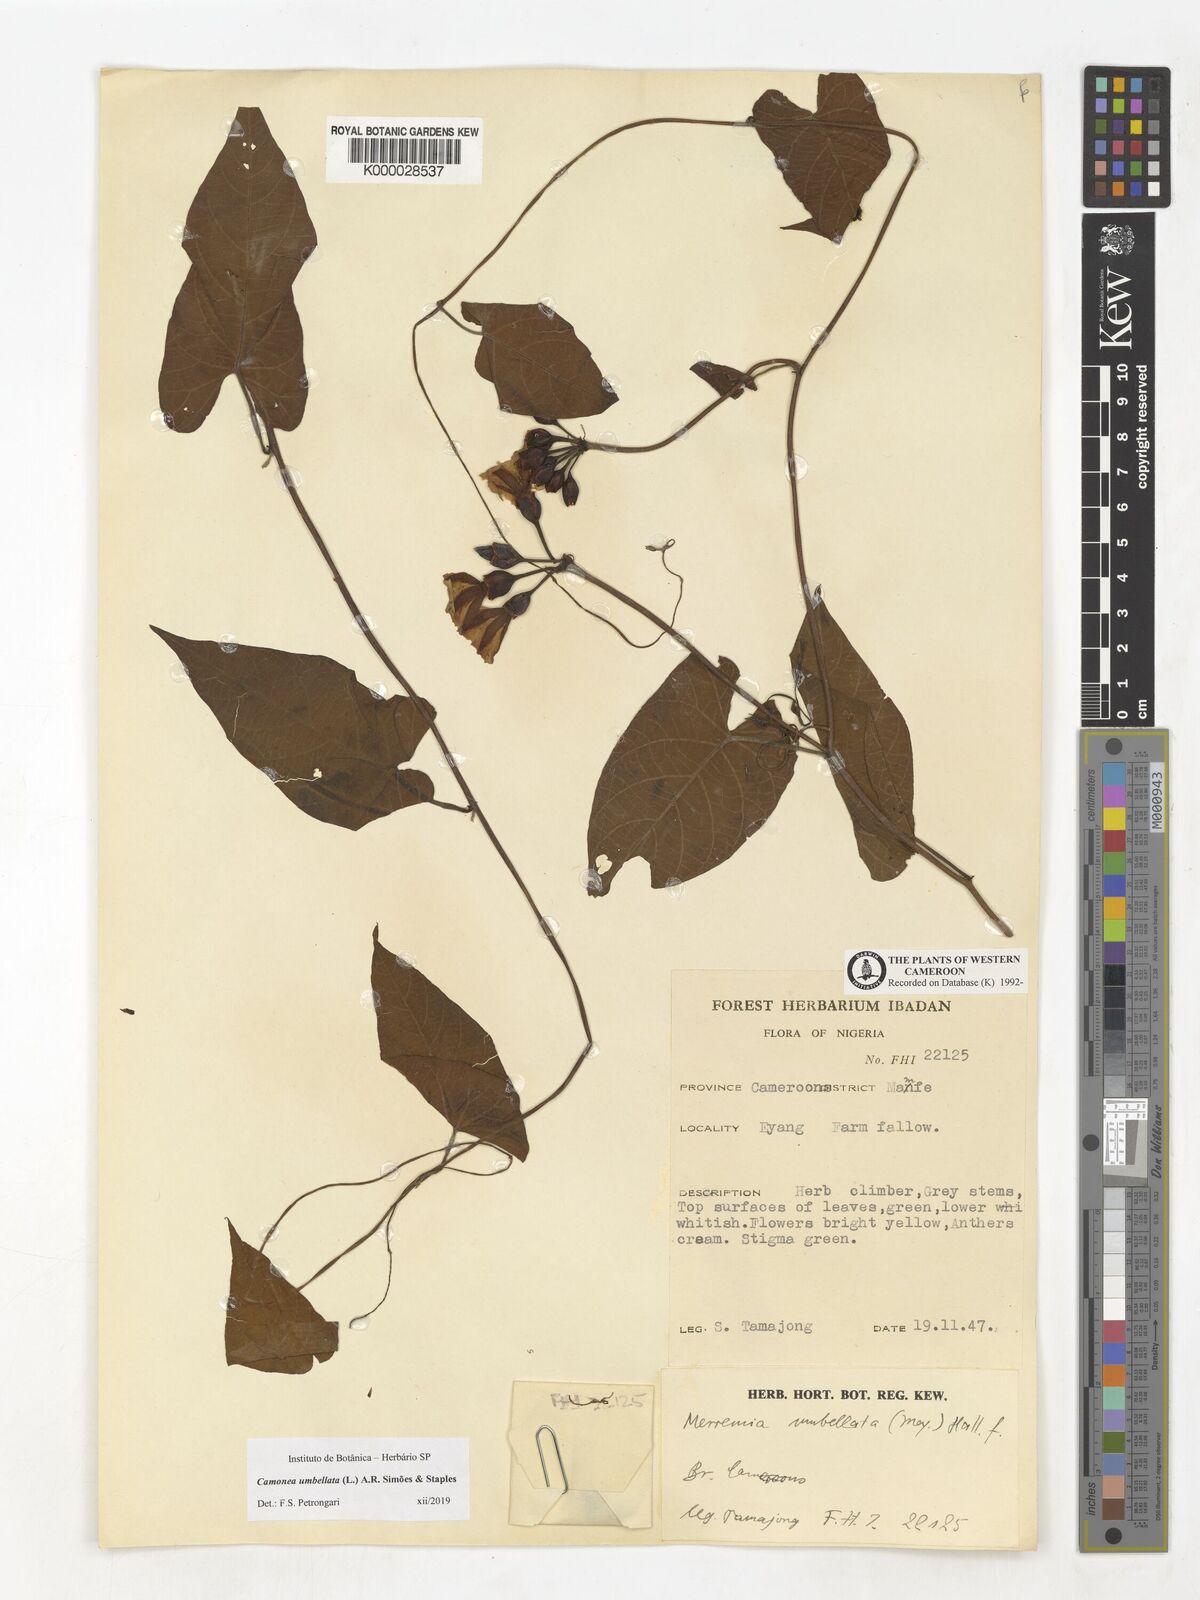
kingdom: Plantae
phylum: Tracheophyta
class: Magnoliopsida
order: Solanales
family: Convolvulaceae
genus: Camonea
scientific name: Camonea umbellata
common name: Hogvine
